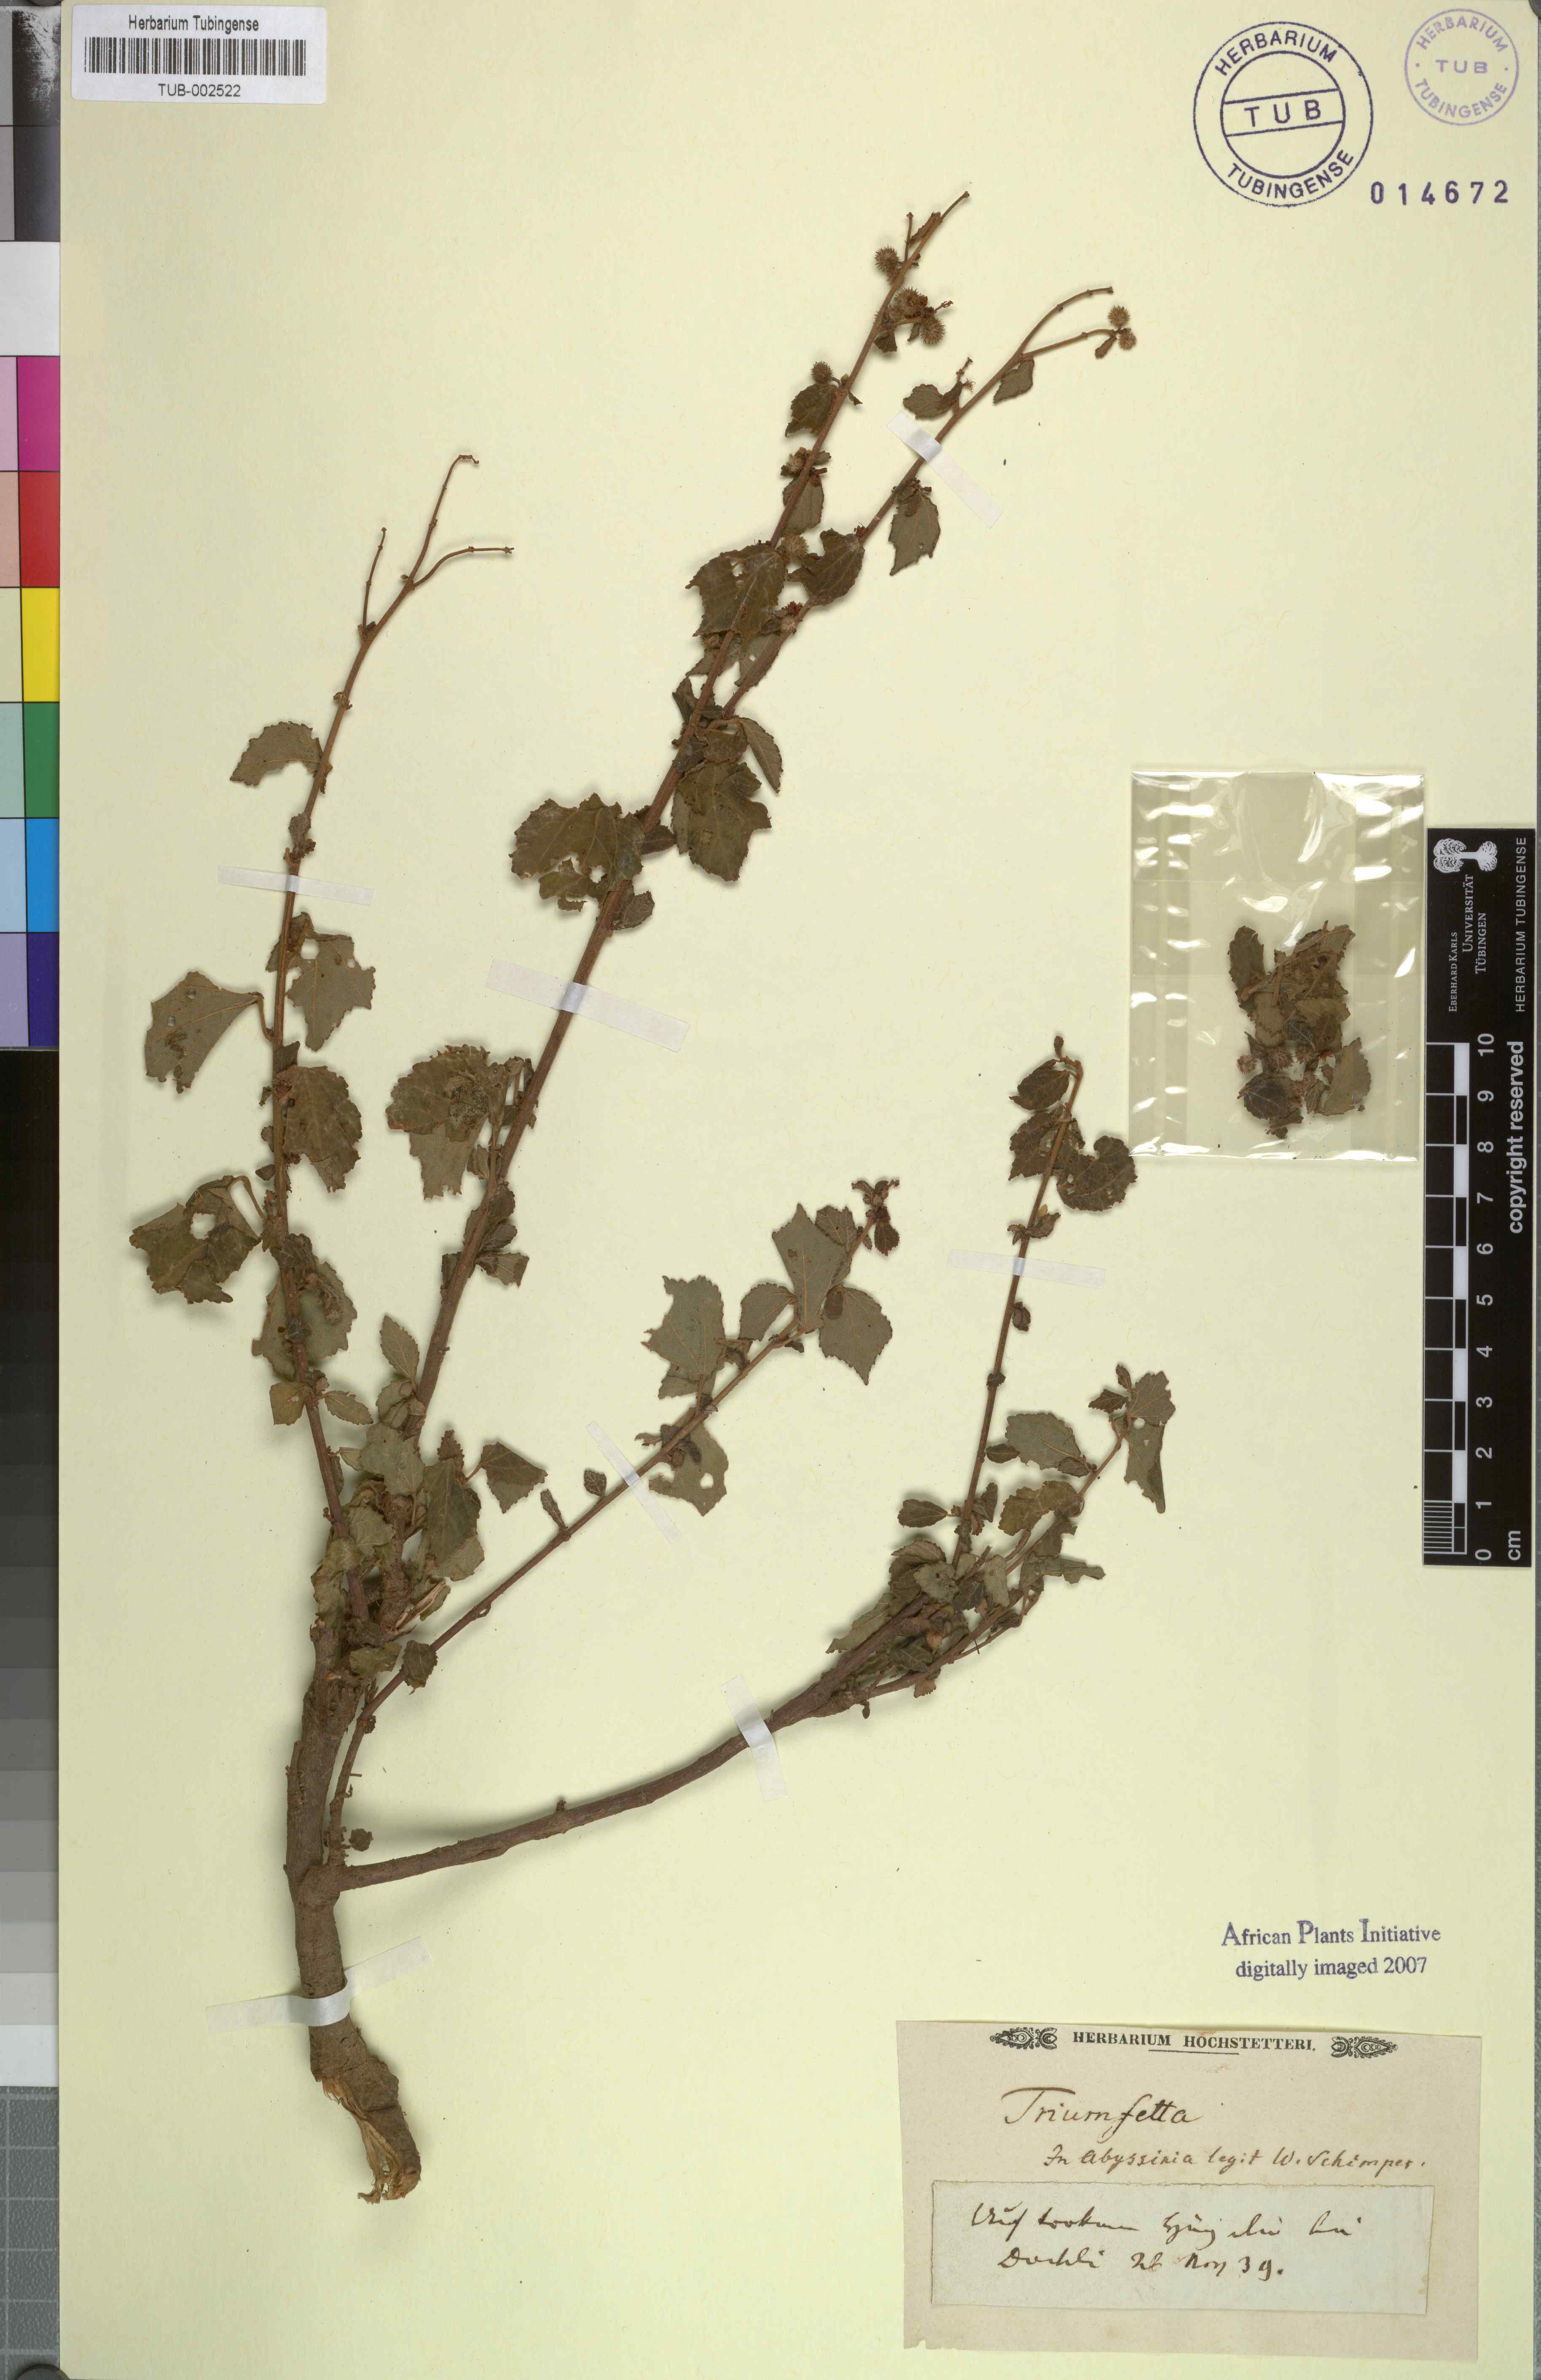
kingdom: Plantae
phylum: Tracheophyta
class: Magnoliopsida
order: Malvales
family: Malvaceae
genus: Triumfetta
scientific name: Triumfetta
